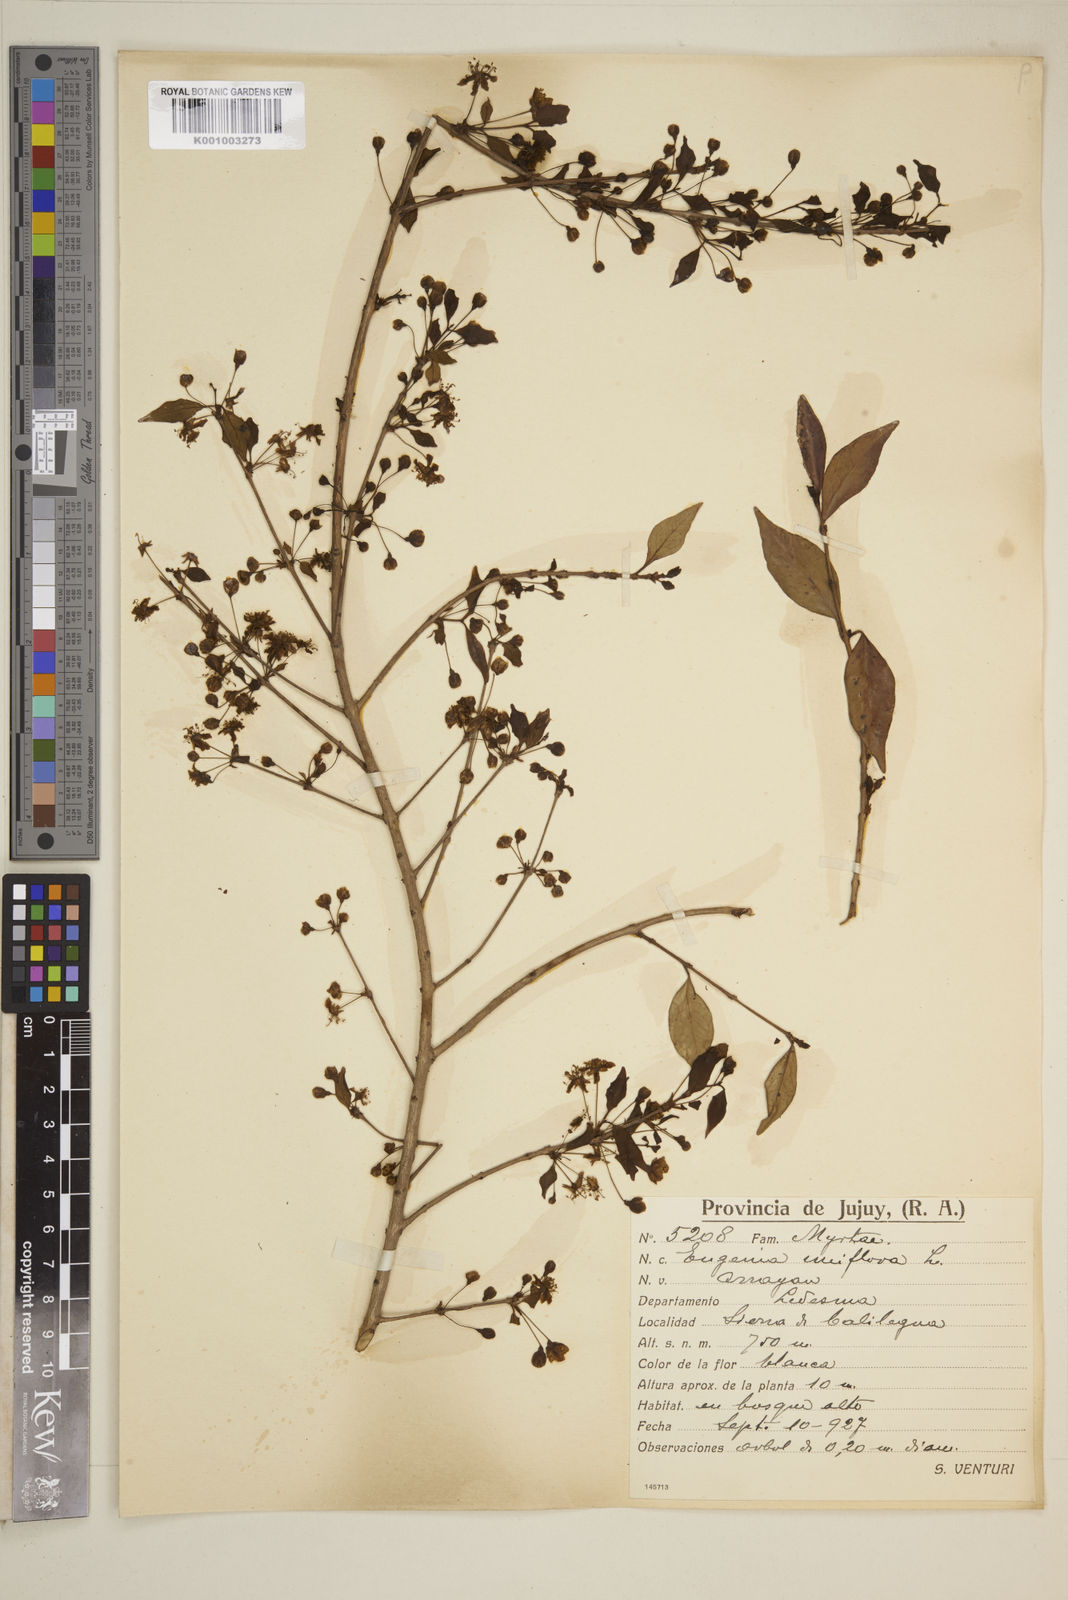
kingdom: Plantae
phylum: Tracheophyta
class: Magnoliopsida
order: Myrtales
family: Myrtaceae
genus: Eugenia
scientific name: Eugenia uniflora
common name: Surinam cherry
